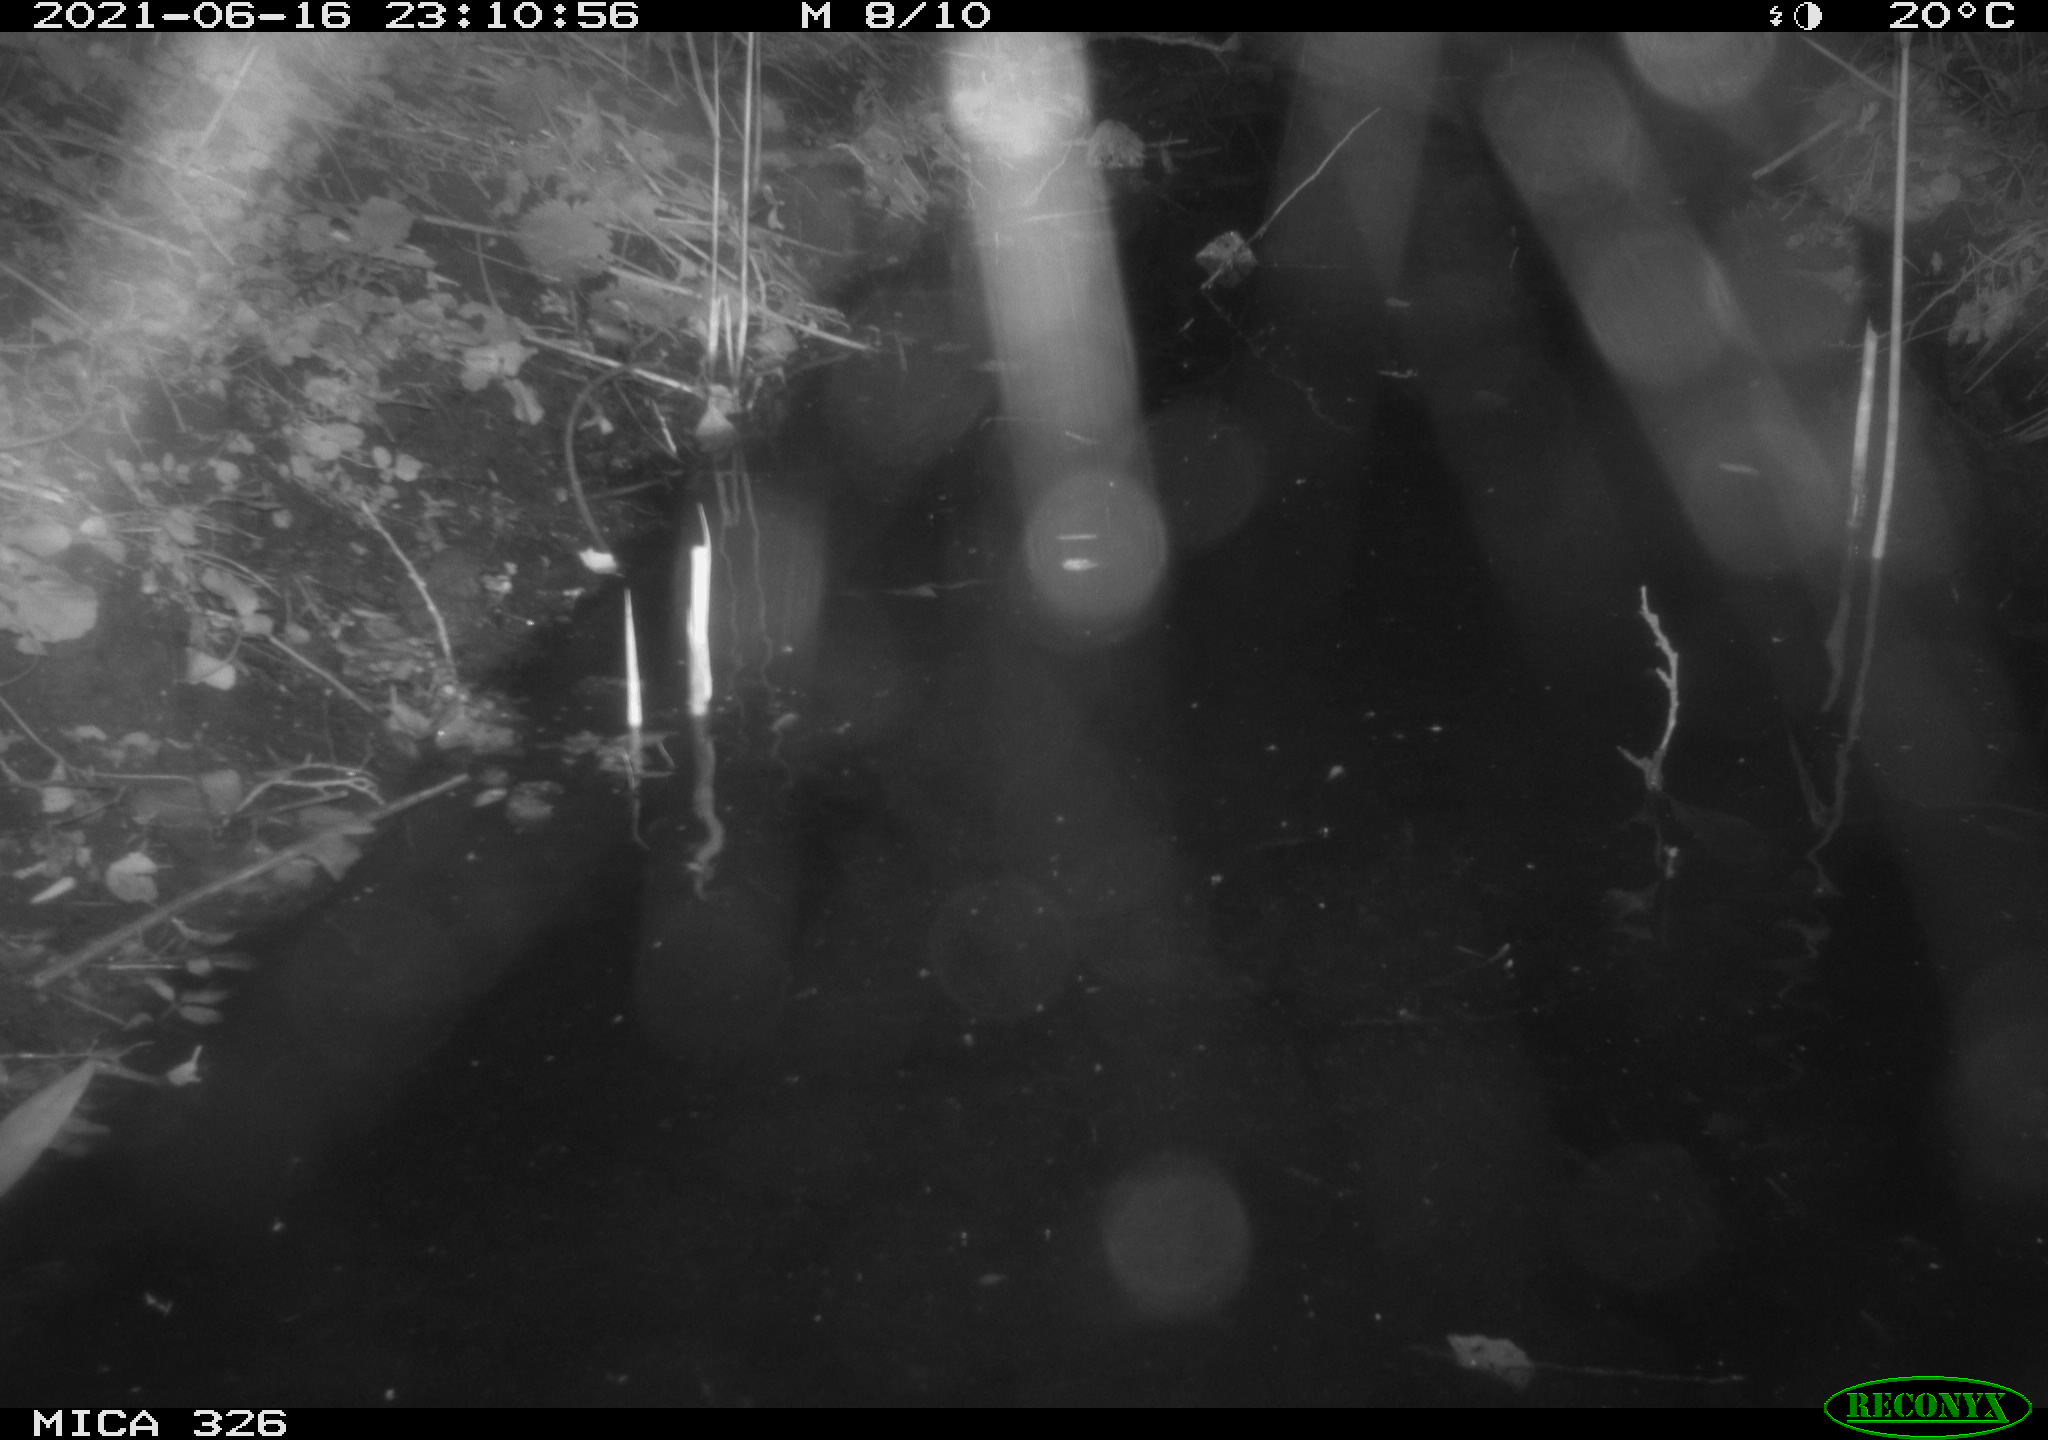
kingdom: Animalia
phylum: Chordata
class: Mammalia
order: Carnivora
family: Mustelidae
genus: Lutra
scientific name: Lutra lutra
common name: European otter
